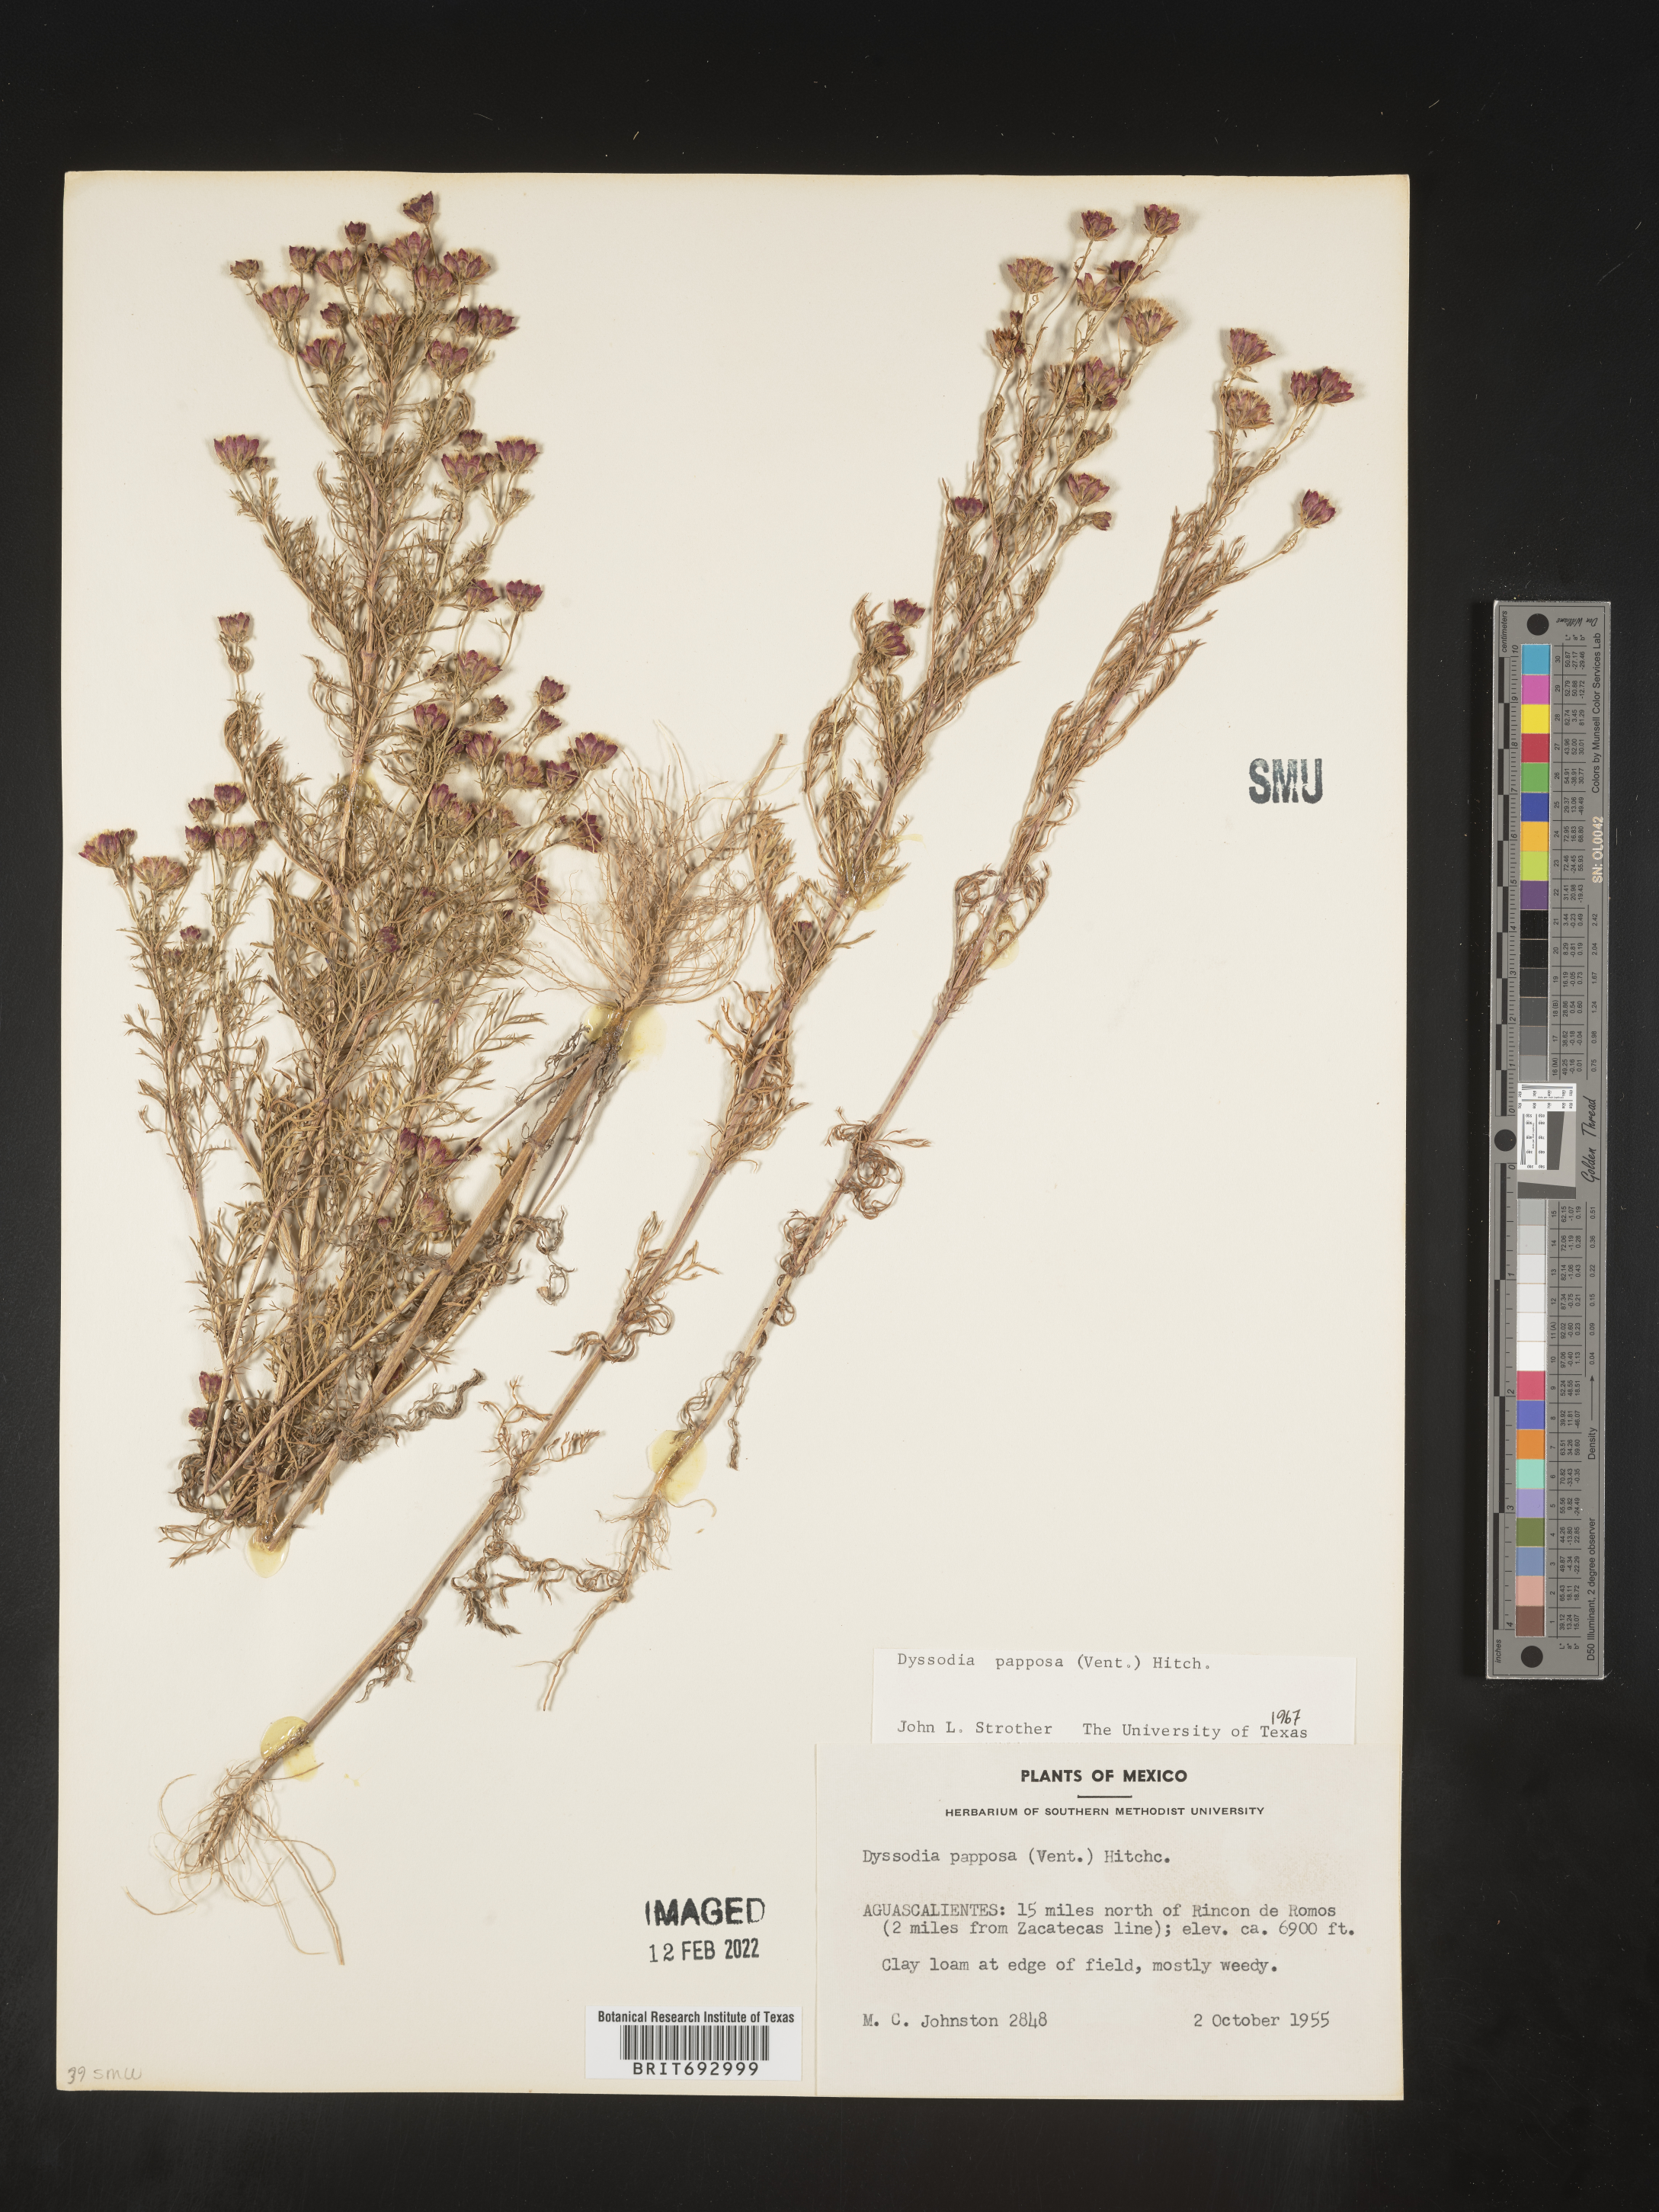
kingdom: Plantae
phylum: Tracheophyta
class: Magnoliopsida
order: Asterales
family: Asteraceae
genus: Dyssodia
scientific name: Dyssodia papposa
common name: Dogweed
